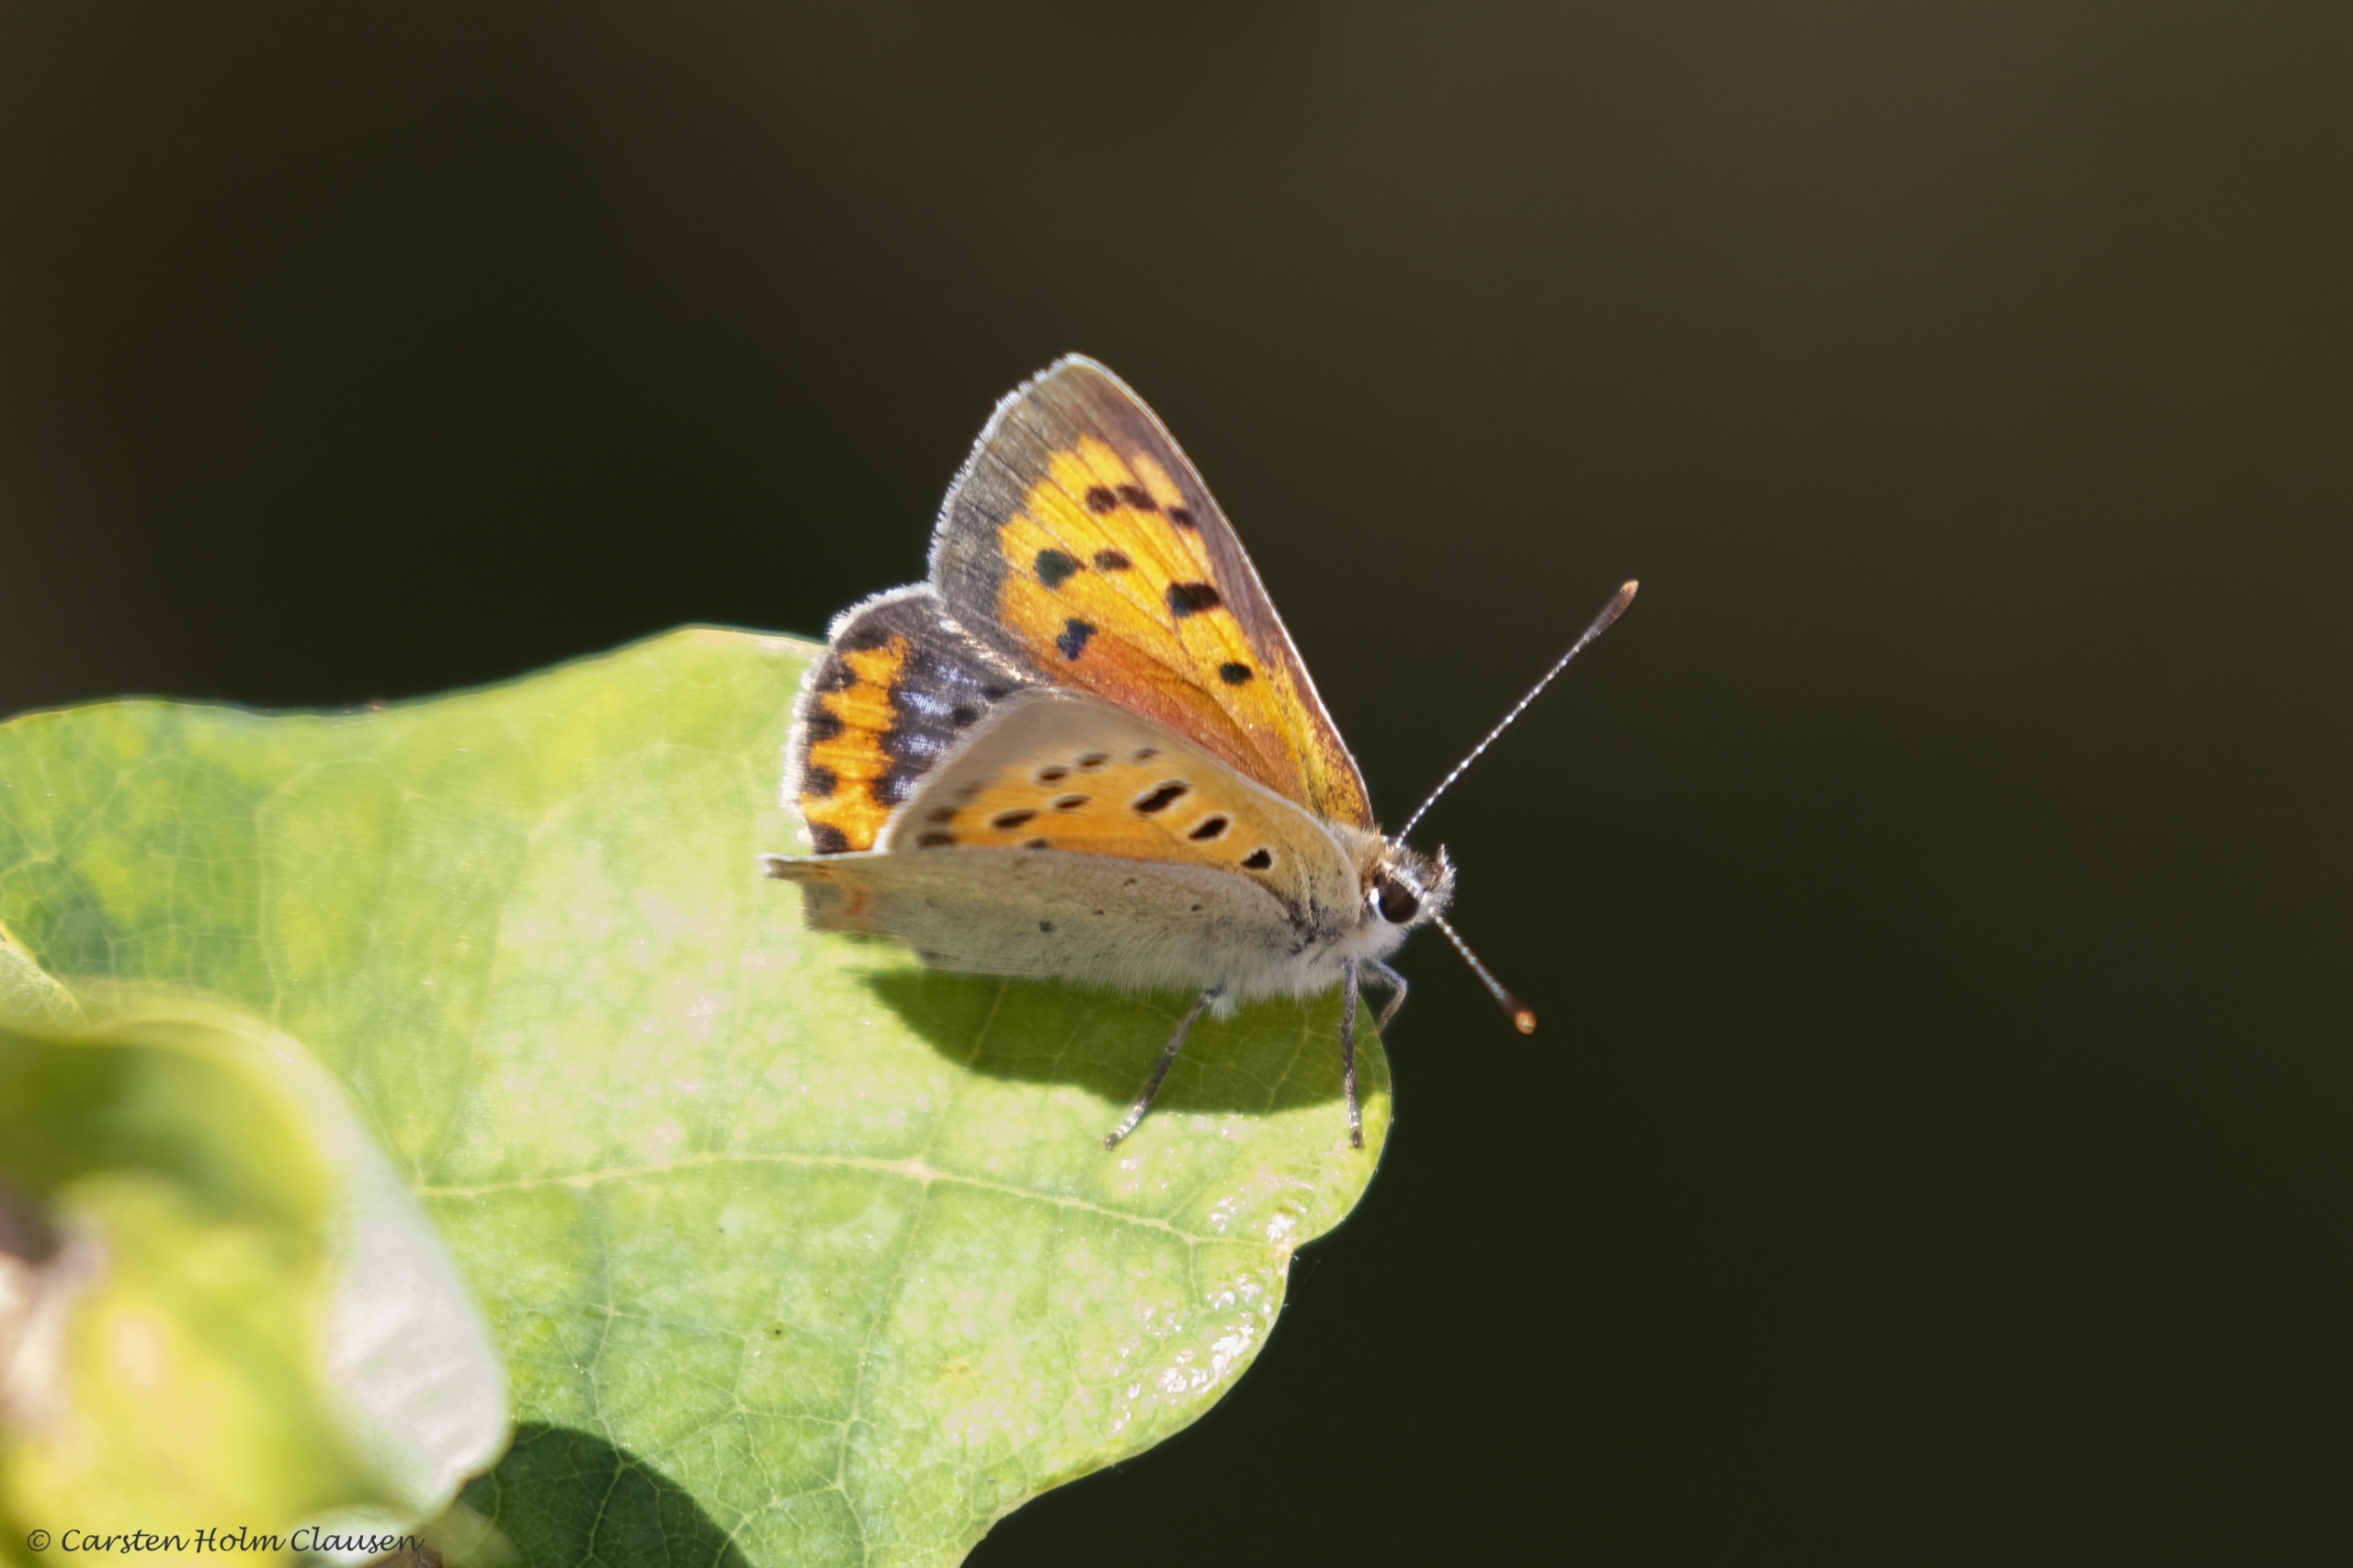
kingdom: Animalia
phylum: Arthropoda
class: Insecta
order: Lepidoptera
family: Lycaenidae
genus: Lycaena
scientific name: Lycaena phlaeas
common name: Lille ildfugl
